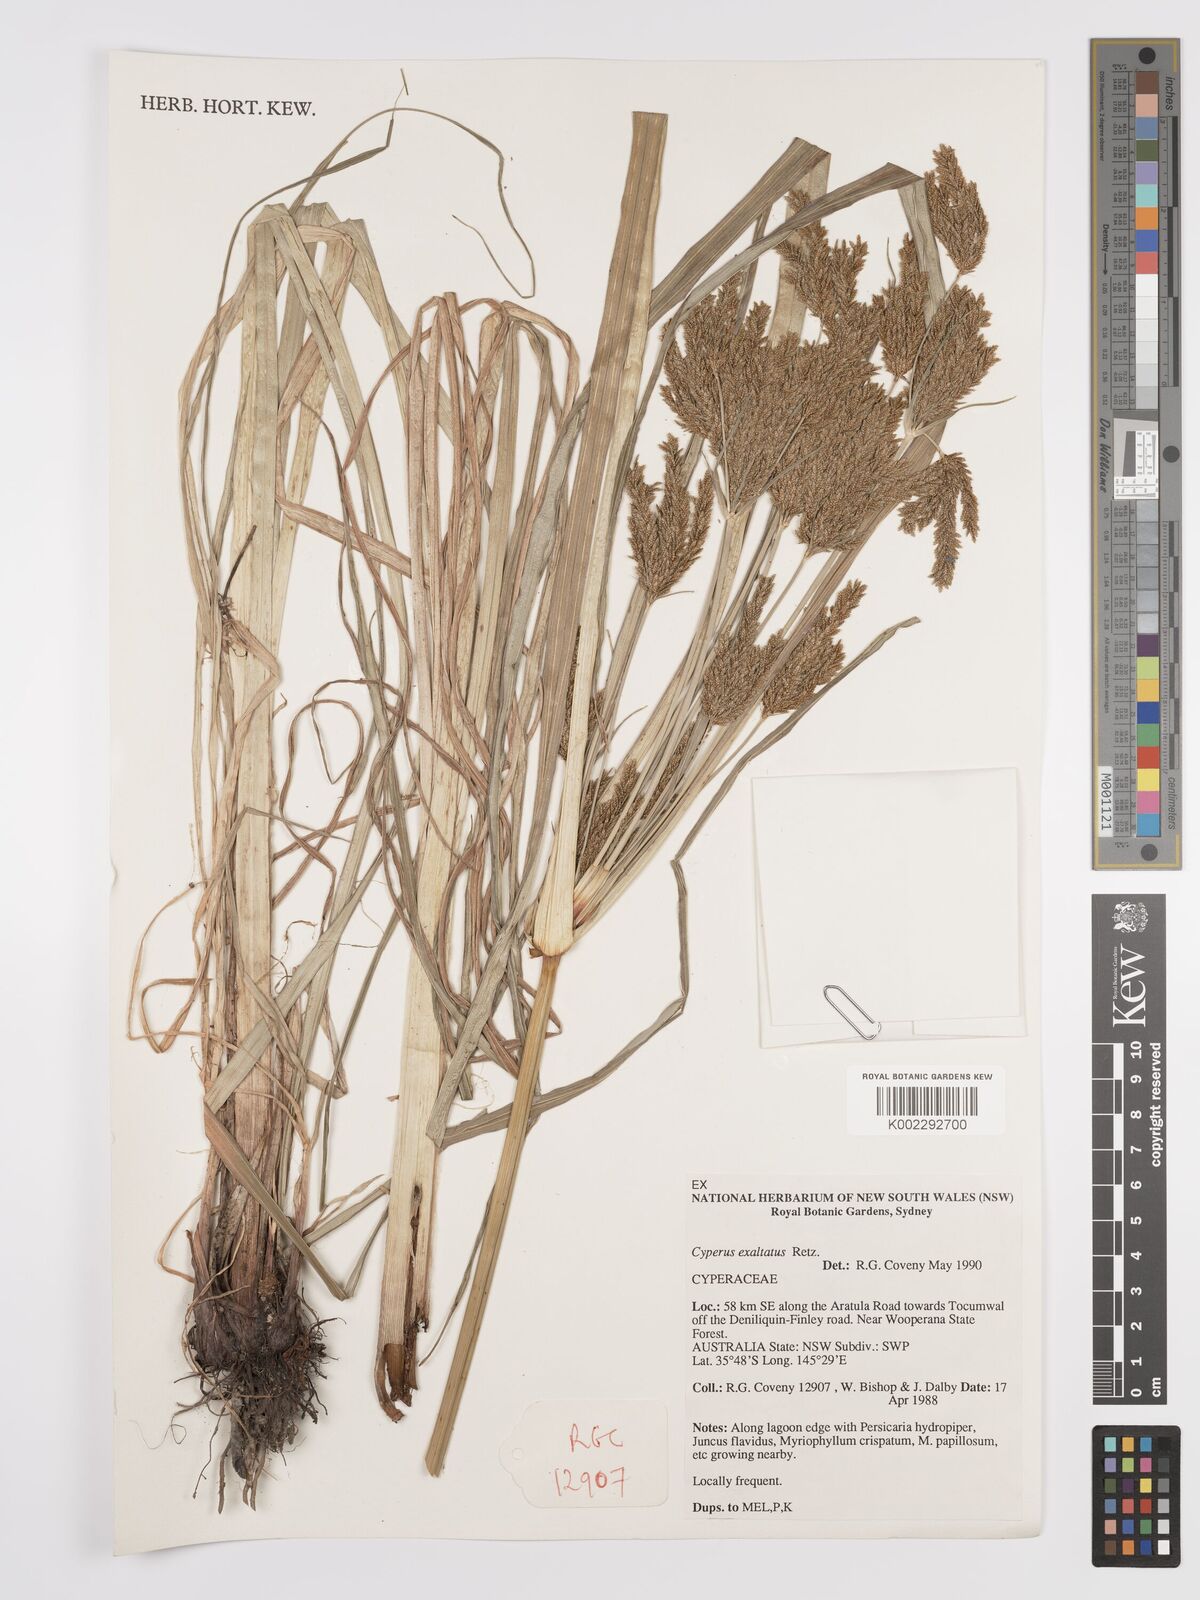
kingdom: Plantae
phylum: Tracheophyta
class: Liliopsida
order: Poales
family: Cyperaceae
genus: Cyperus
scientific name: Cyperus exaltatus
